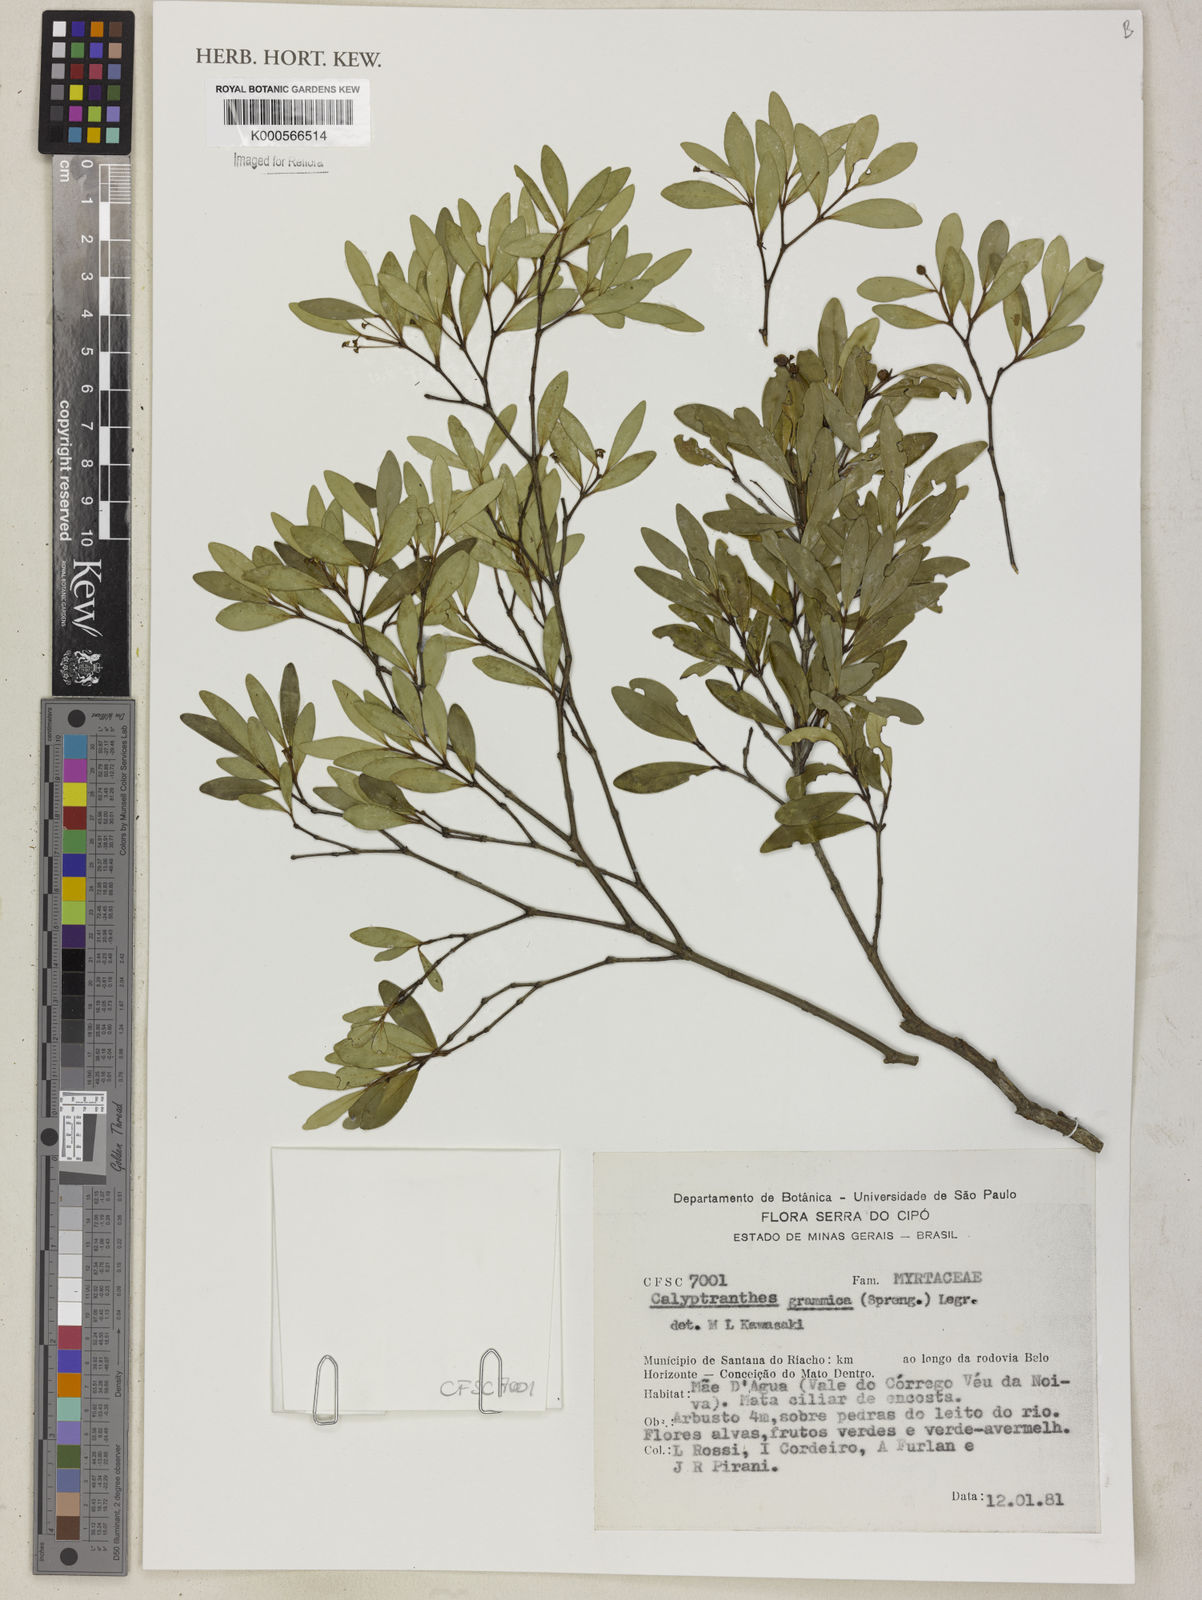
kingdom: Plantae
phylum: Tracheophyta
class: Magnoliopsida
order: Myrtales
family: Myrtaceae
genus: Myrcia
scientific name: Myrcia grammica
